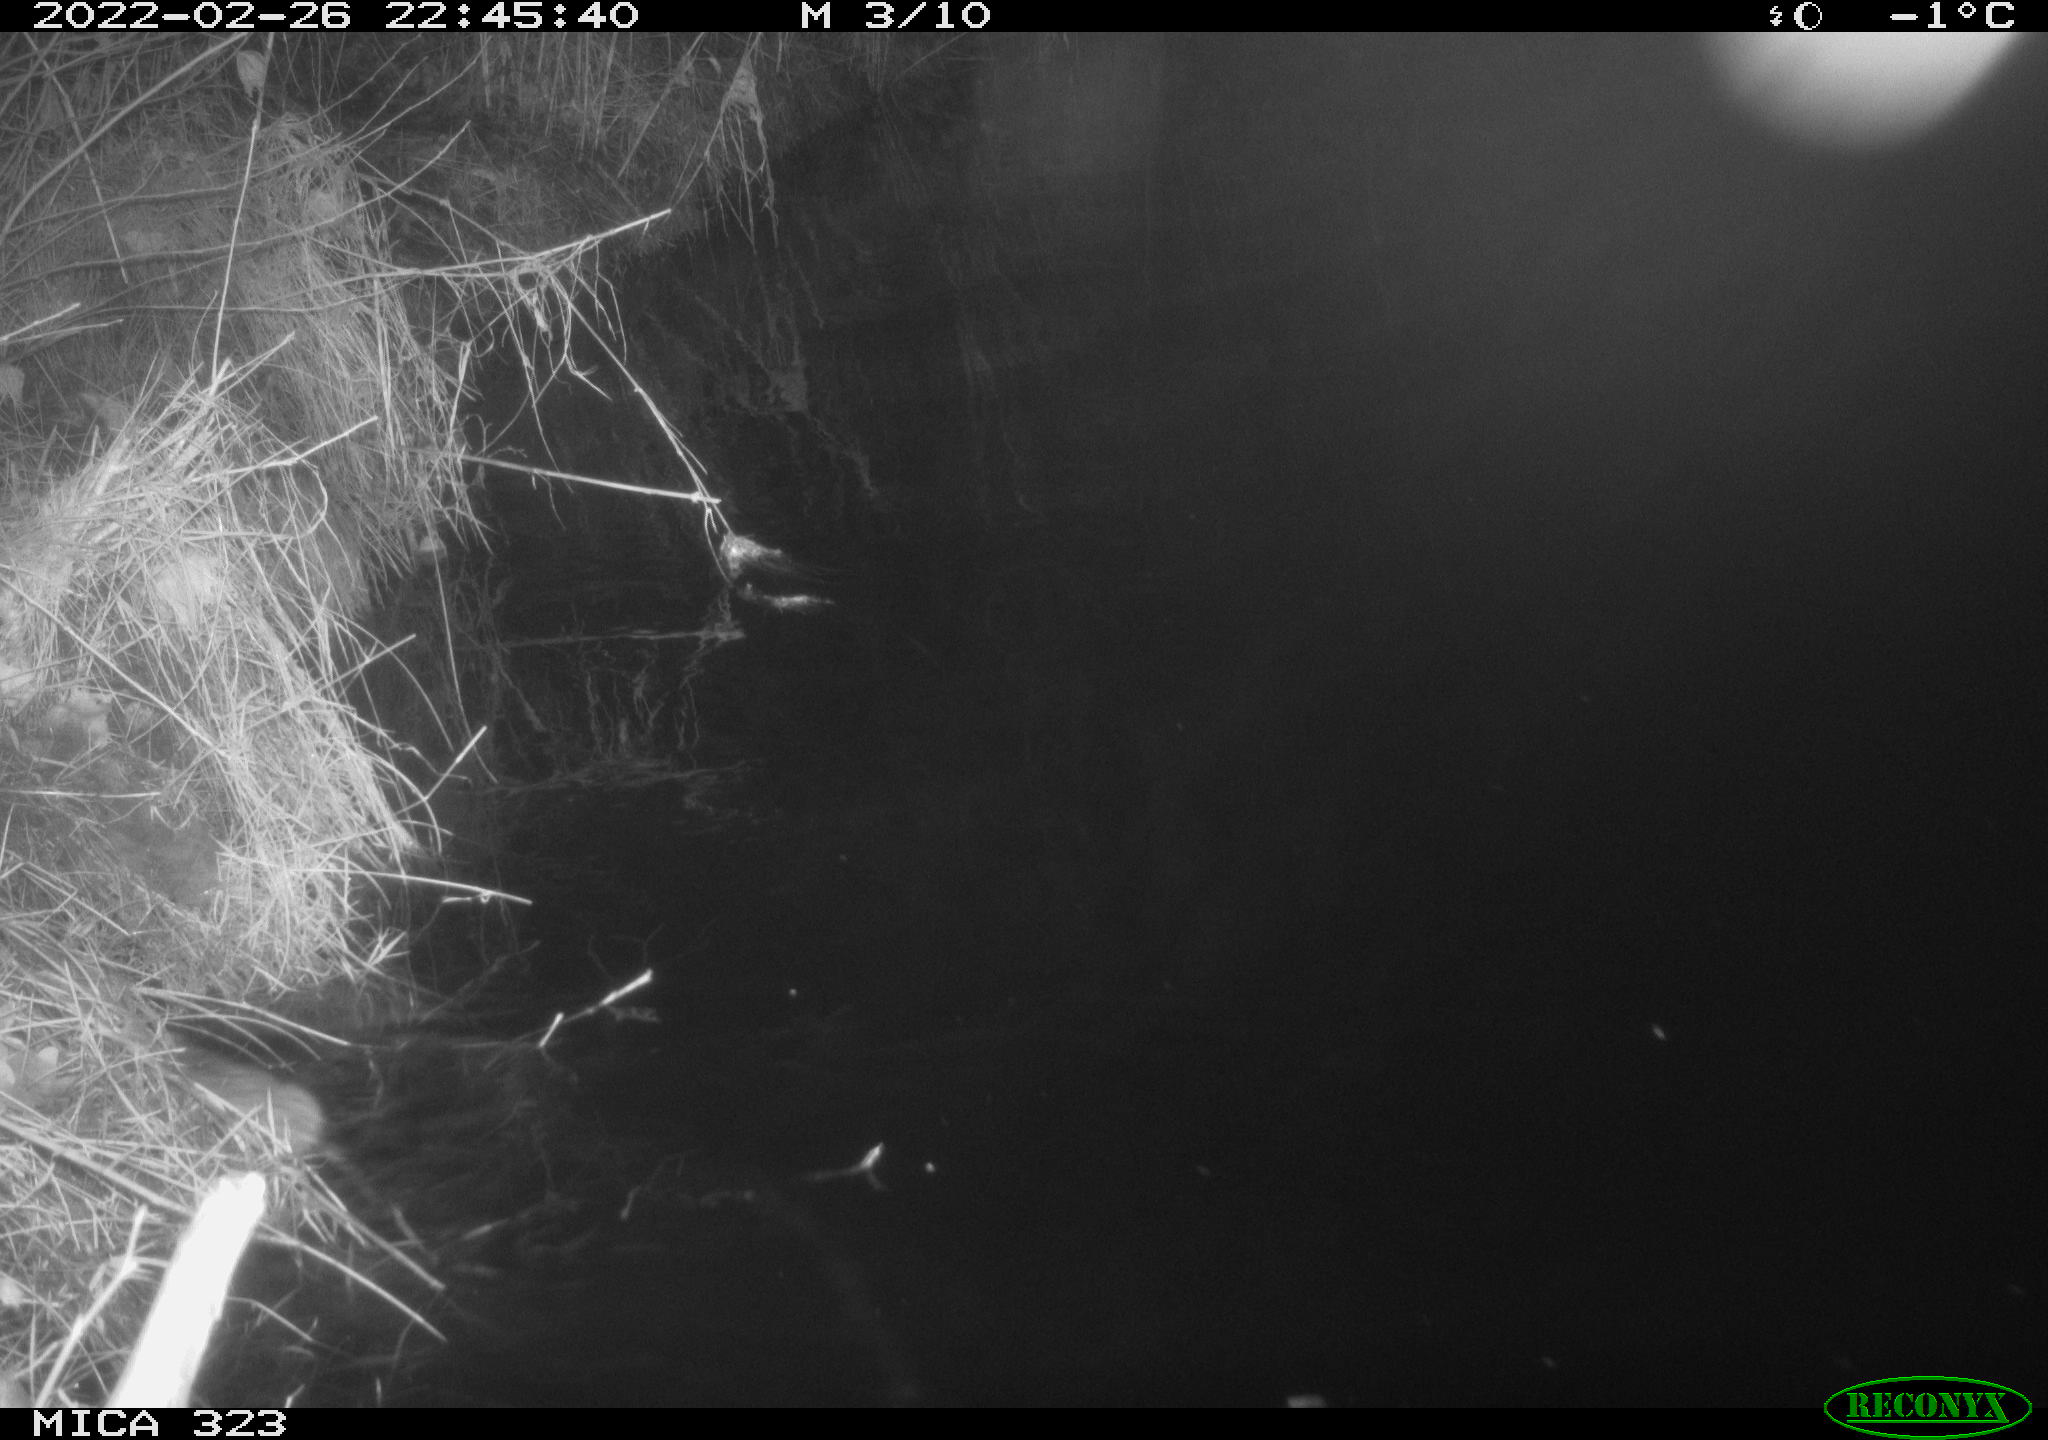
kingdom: Animalia
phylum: Chordata
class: Mammalia
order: Rodentia
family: Cricetidae
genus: Ondatra
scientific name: Ondatra zibethicus
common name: Muskrat
